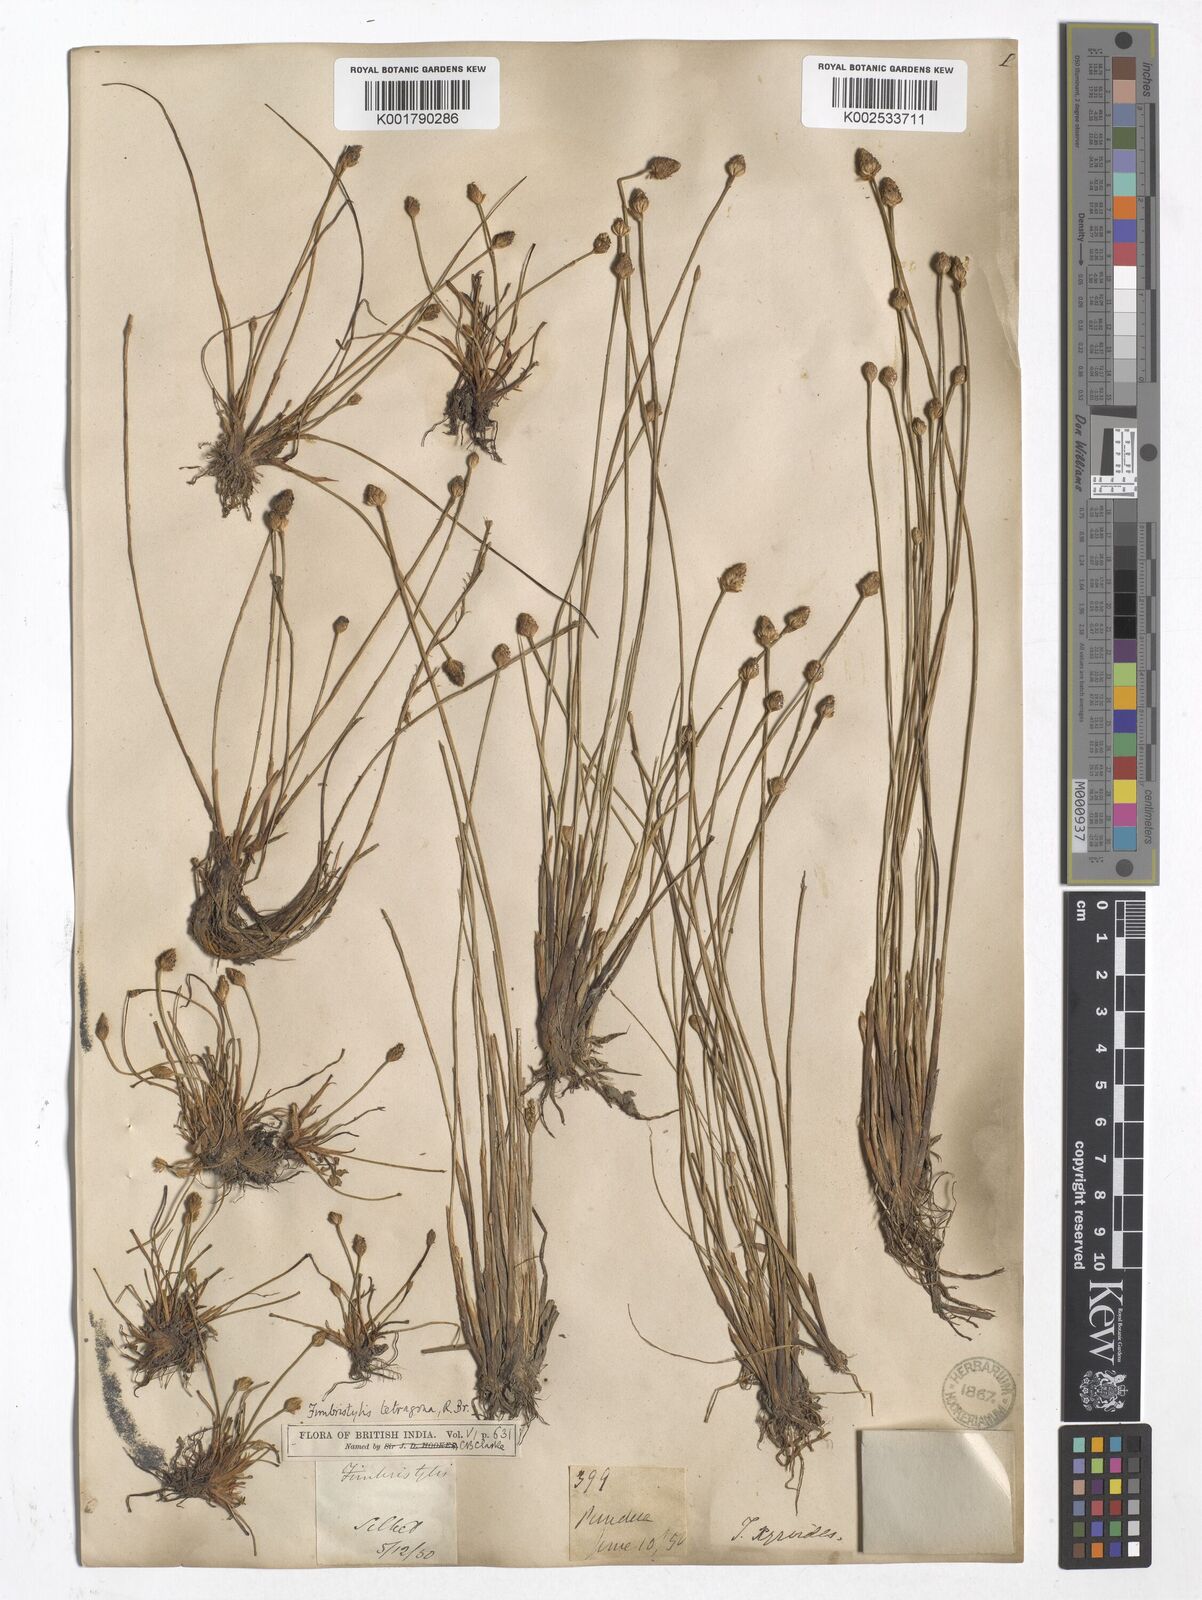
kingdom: Plantae
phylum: Tracheophyta
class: Liliopsida
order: Poales
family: Cyperaceae
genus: Fimbristylis
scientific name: Fimbristylis tetragona
